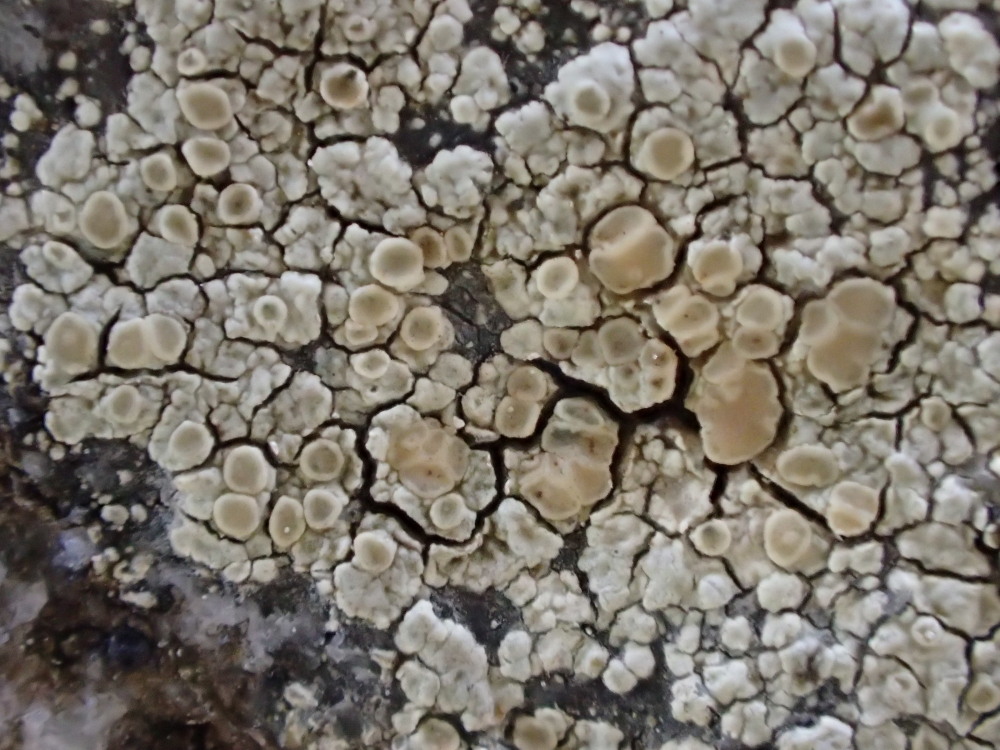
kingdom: Fungi
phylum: Ascomycota
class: Lecanoromycetes
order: Lecanorales
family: Lecanoraceae
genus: Protoparmeliopsis
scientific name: Protoparmeliopsis muralis
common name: randfliget kantskivelav
